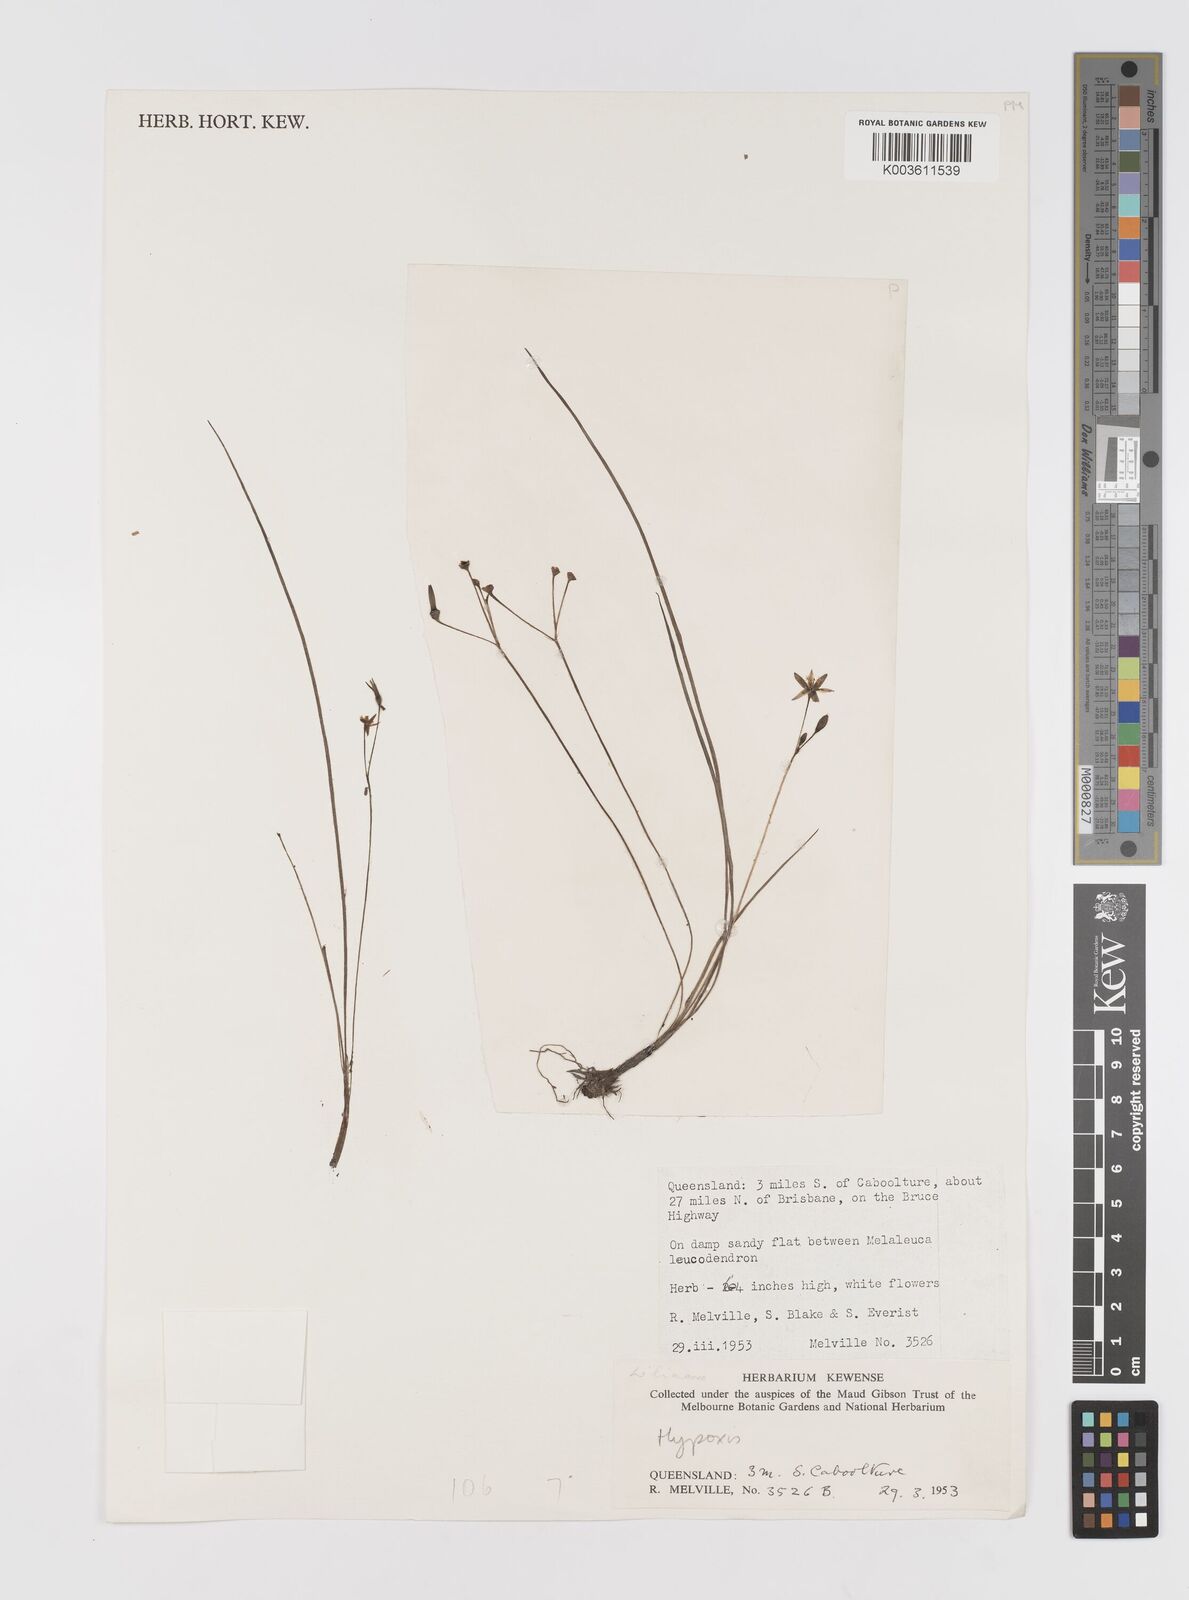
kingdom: Plantae
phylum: Tracheophyta
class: Liliopsida
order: Asparagales
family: Hypoxidaceae
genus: Hypoxis
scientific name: Hypoxis
